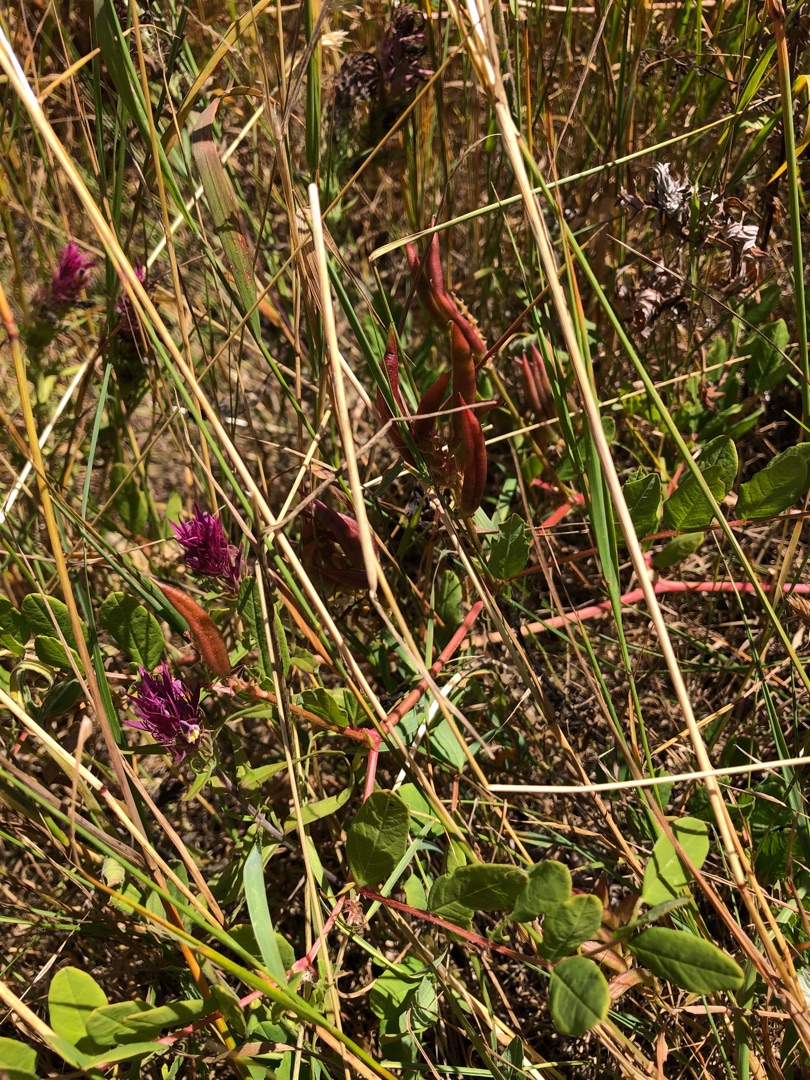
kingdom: Plantae
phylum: Tracheophyta
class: Magnoliopsida
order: Fabales
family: Fabaceae
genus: Astragalus
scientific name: Astragalus glycyphyllos
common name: Sød astragel
